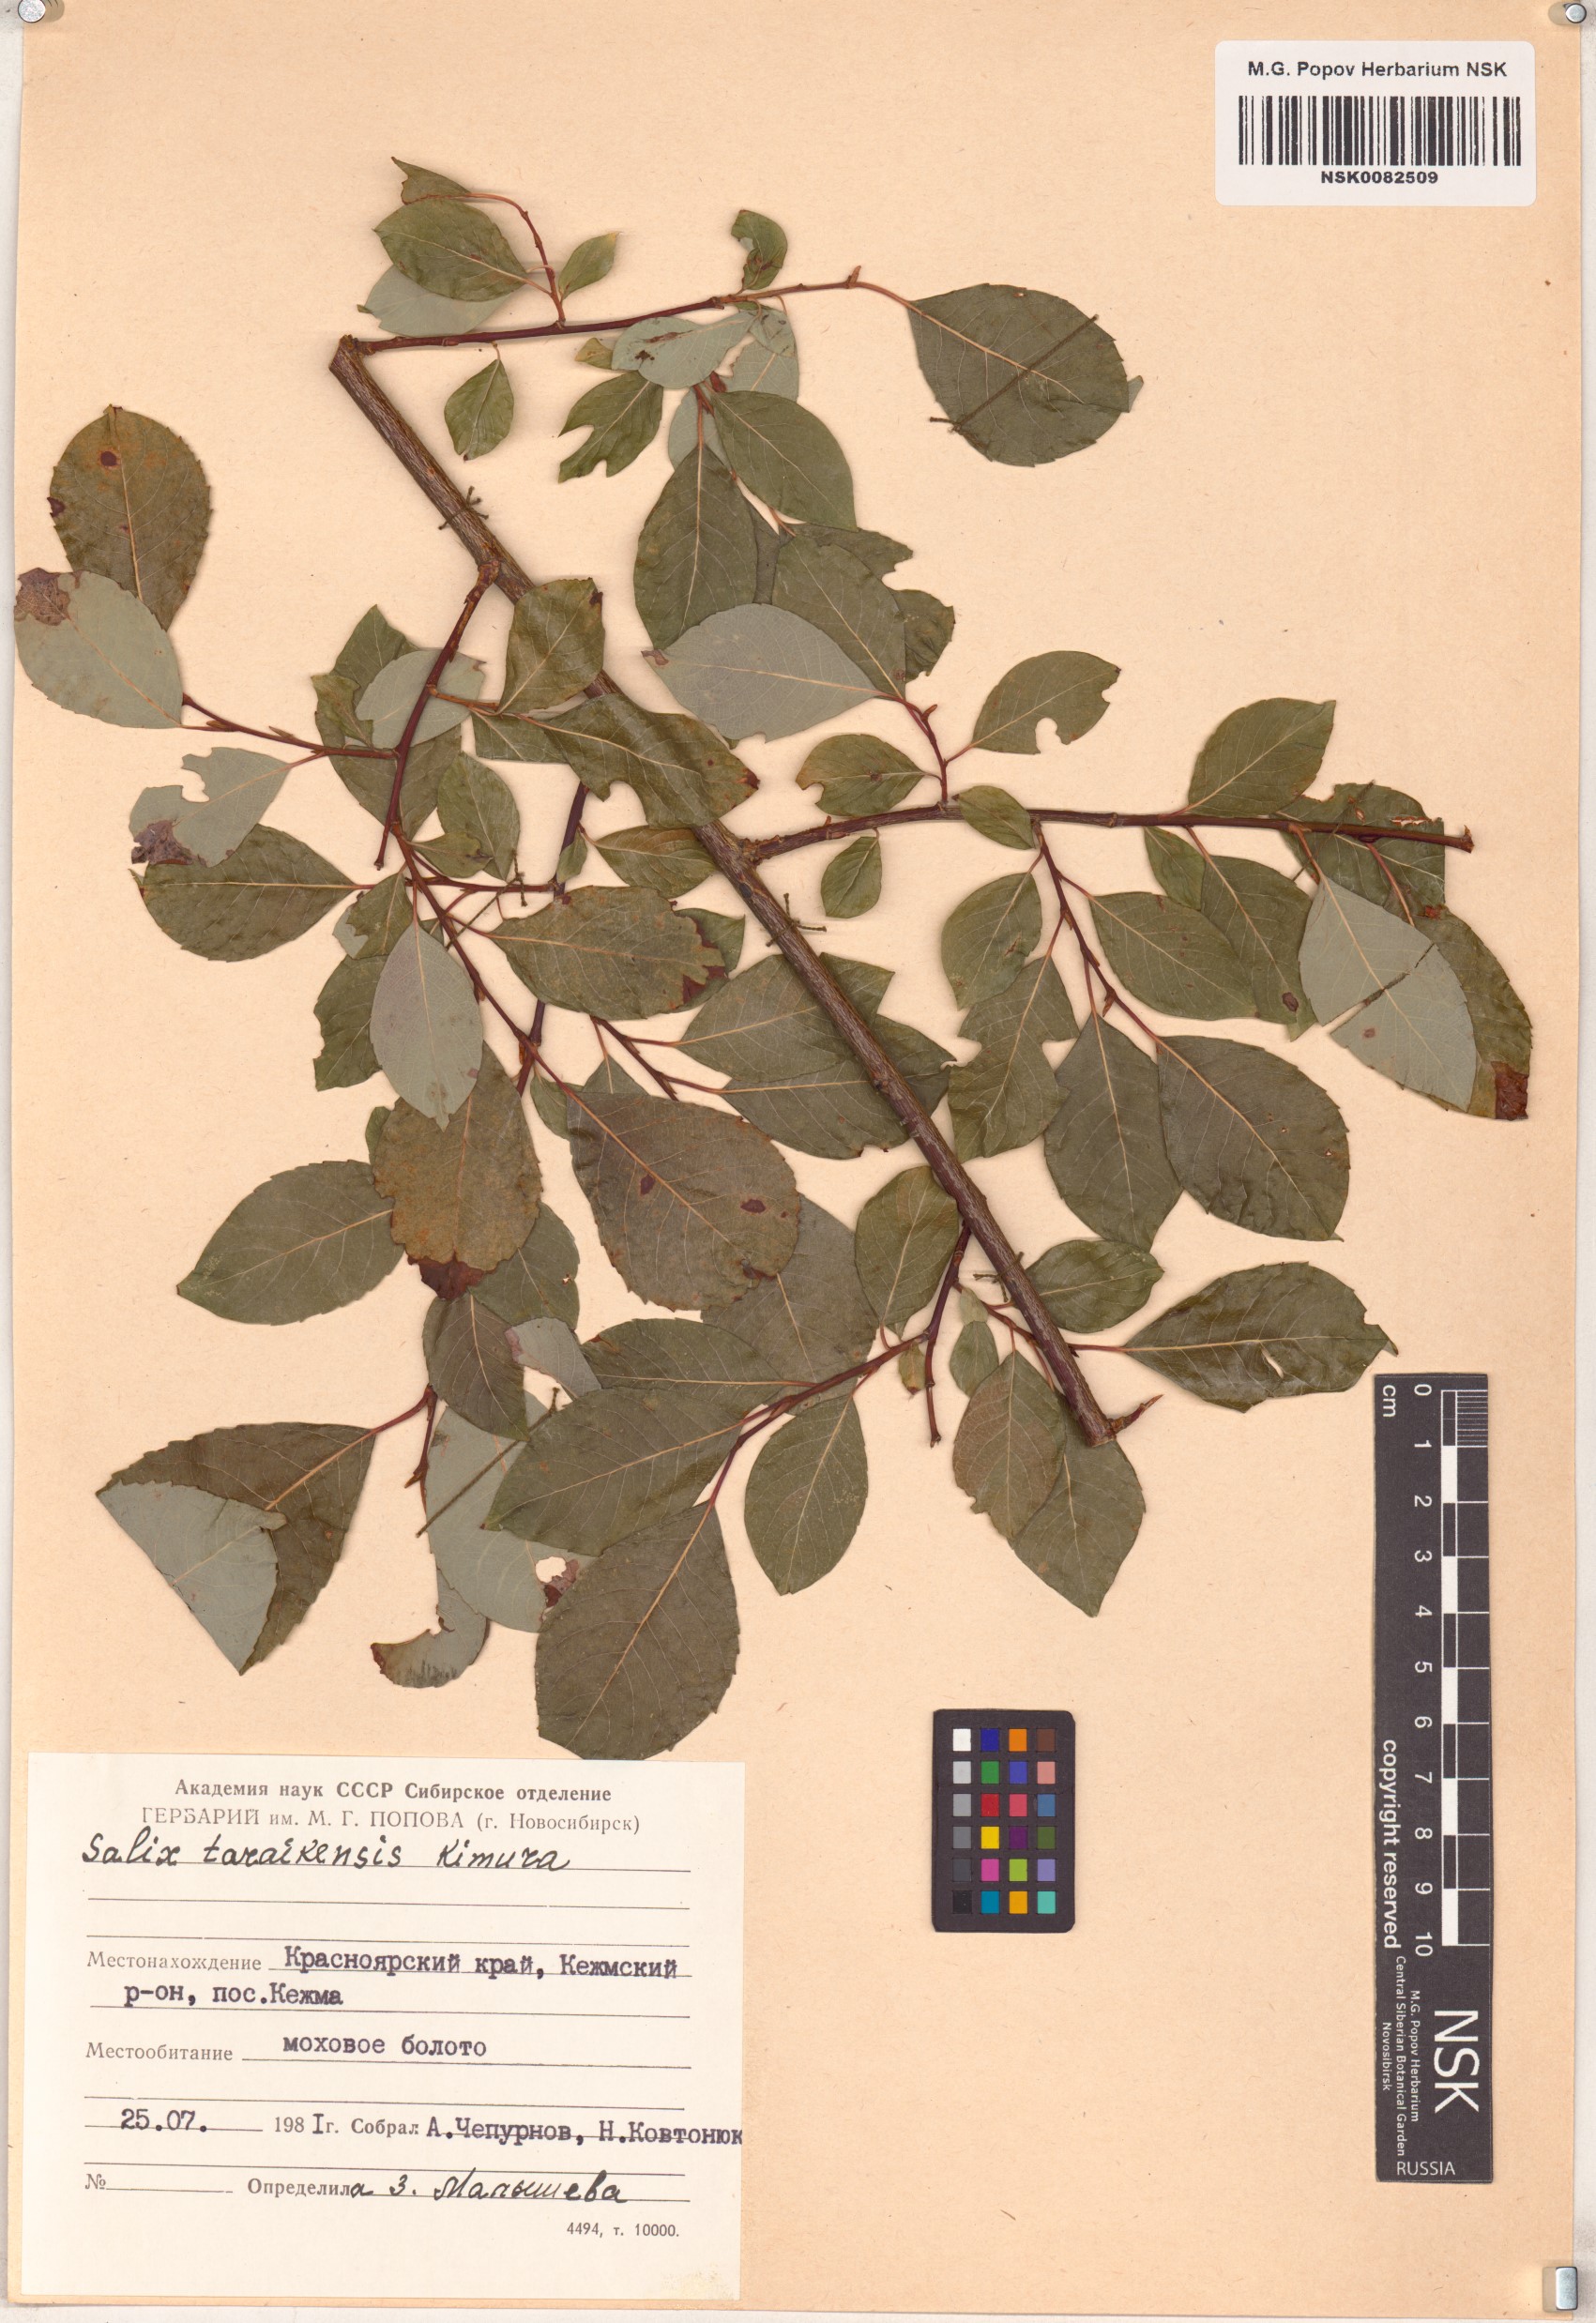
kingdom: Plantae
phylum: Tracheophyta
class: Magnoliopsida
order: Malpighiales
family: Salicaceae
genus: Salix
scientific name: Salix taraikensis
